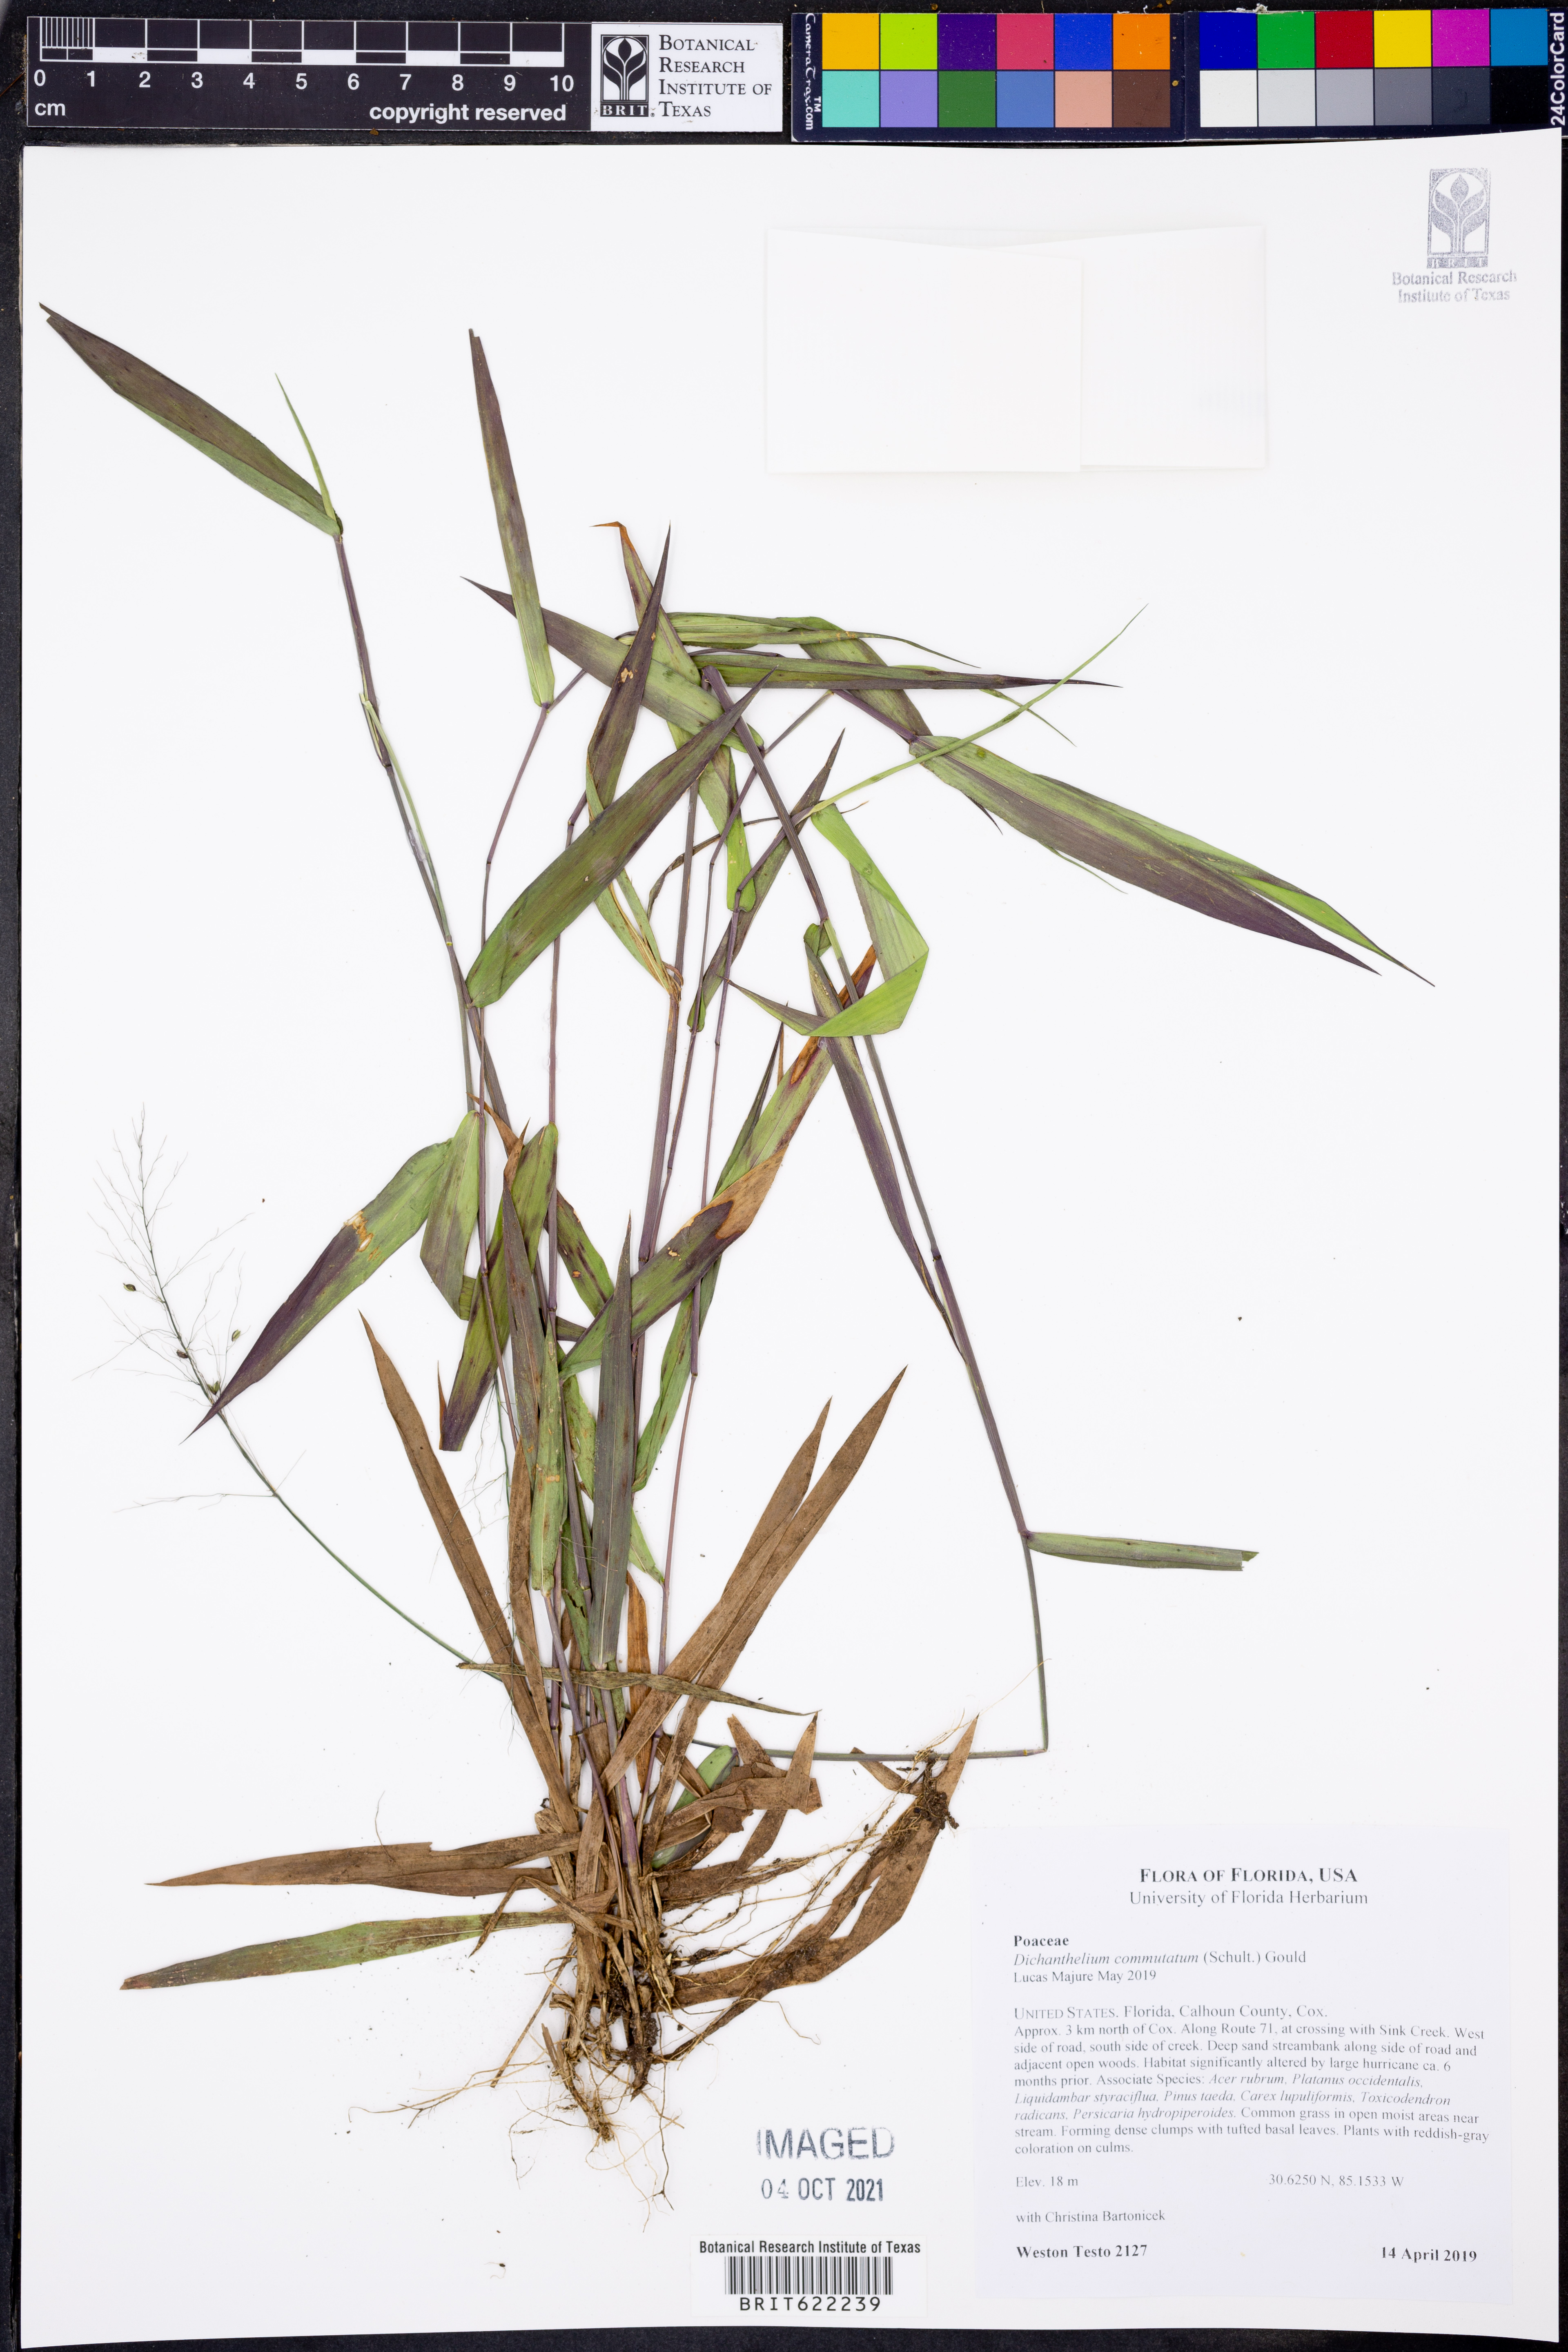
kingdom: Plantae
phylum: Tracheophyta
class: Liliopsida
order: Poales
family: Poaceae
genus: Dichanthelium
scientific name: Dichanthelium commutatum
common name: Variable witchgrass
